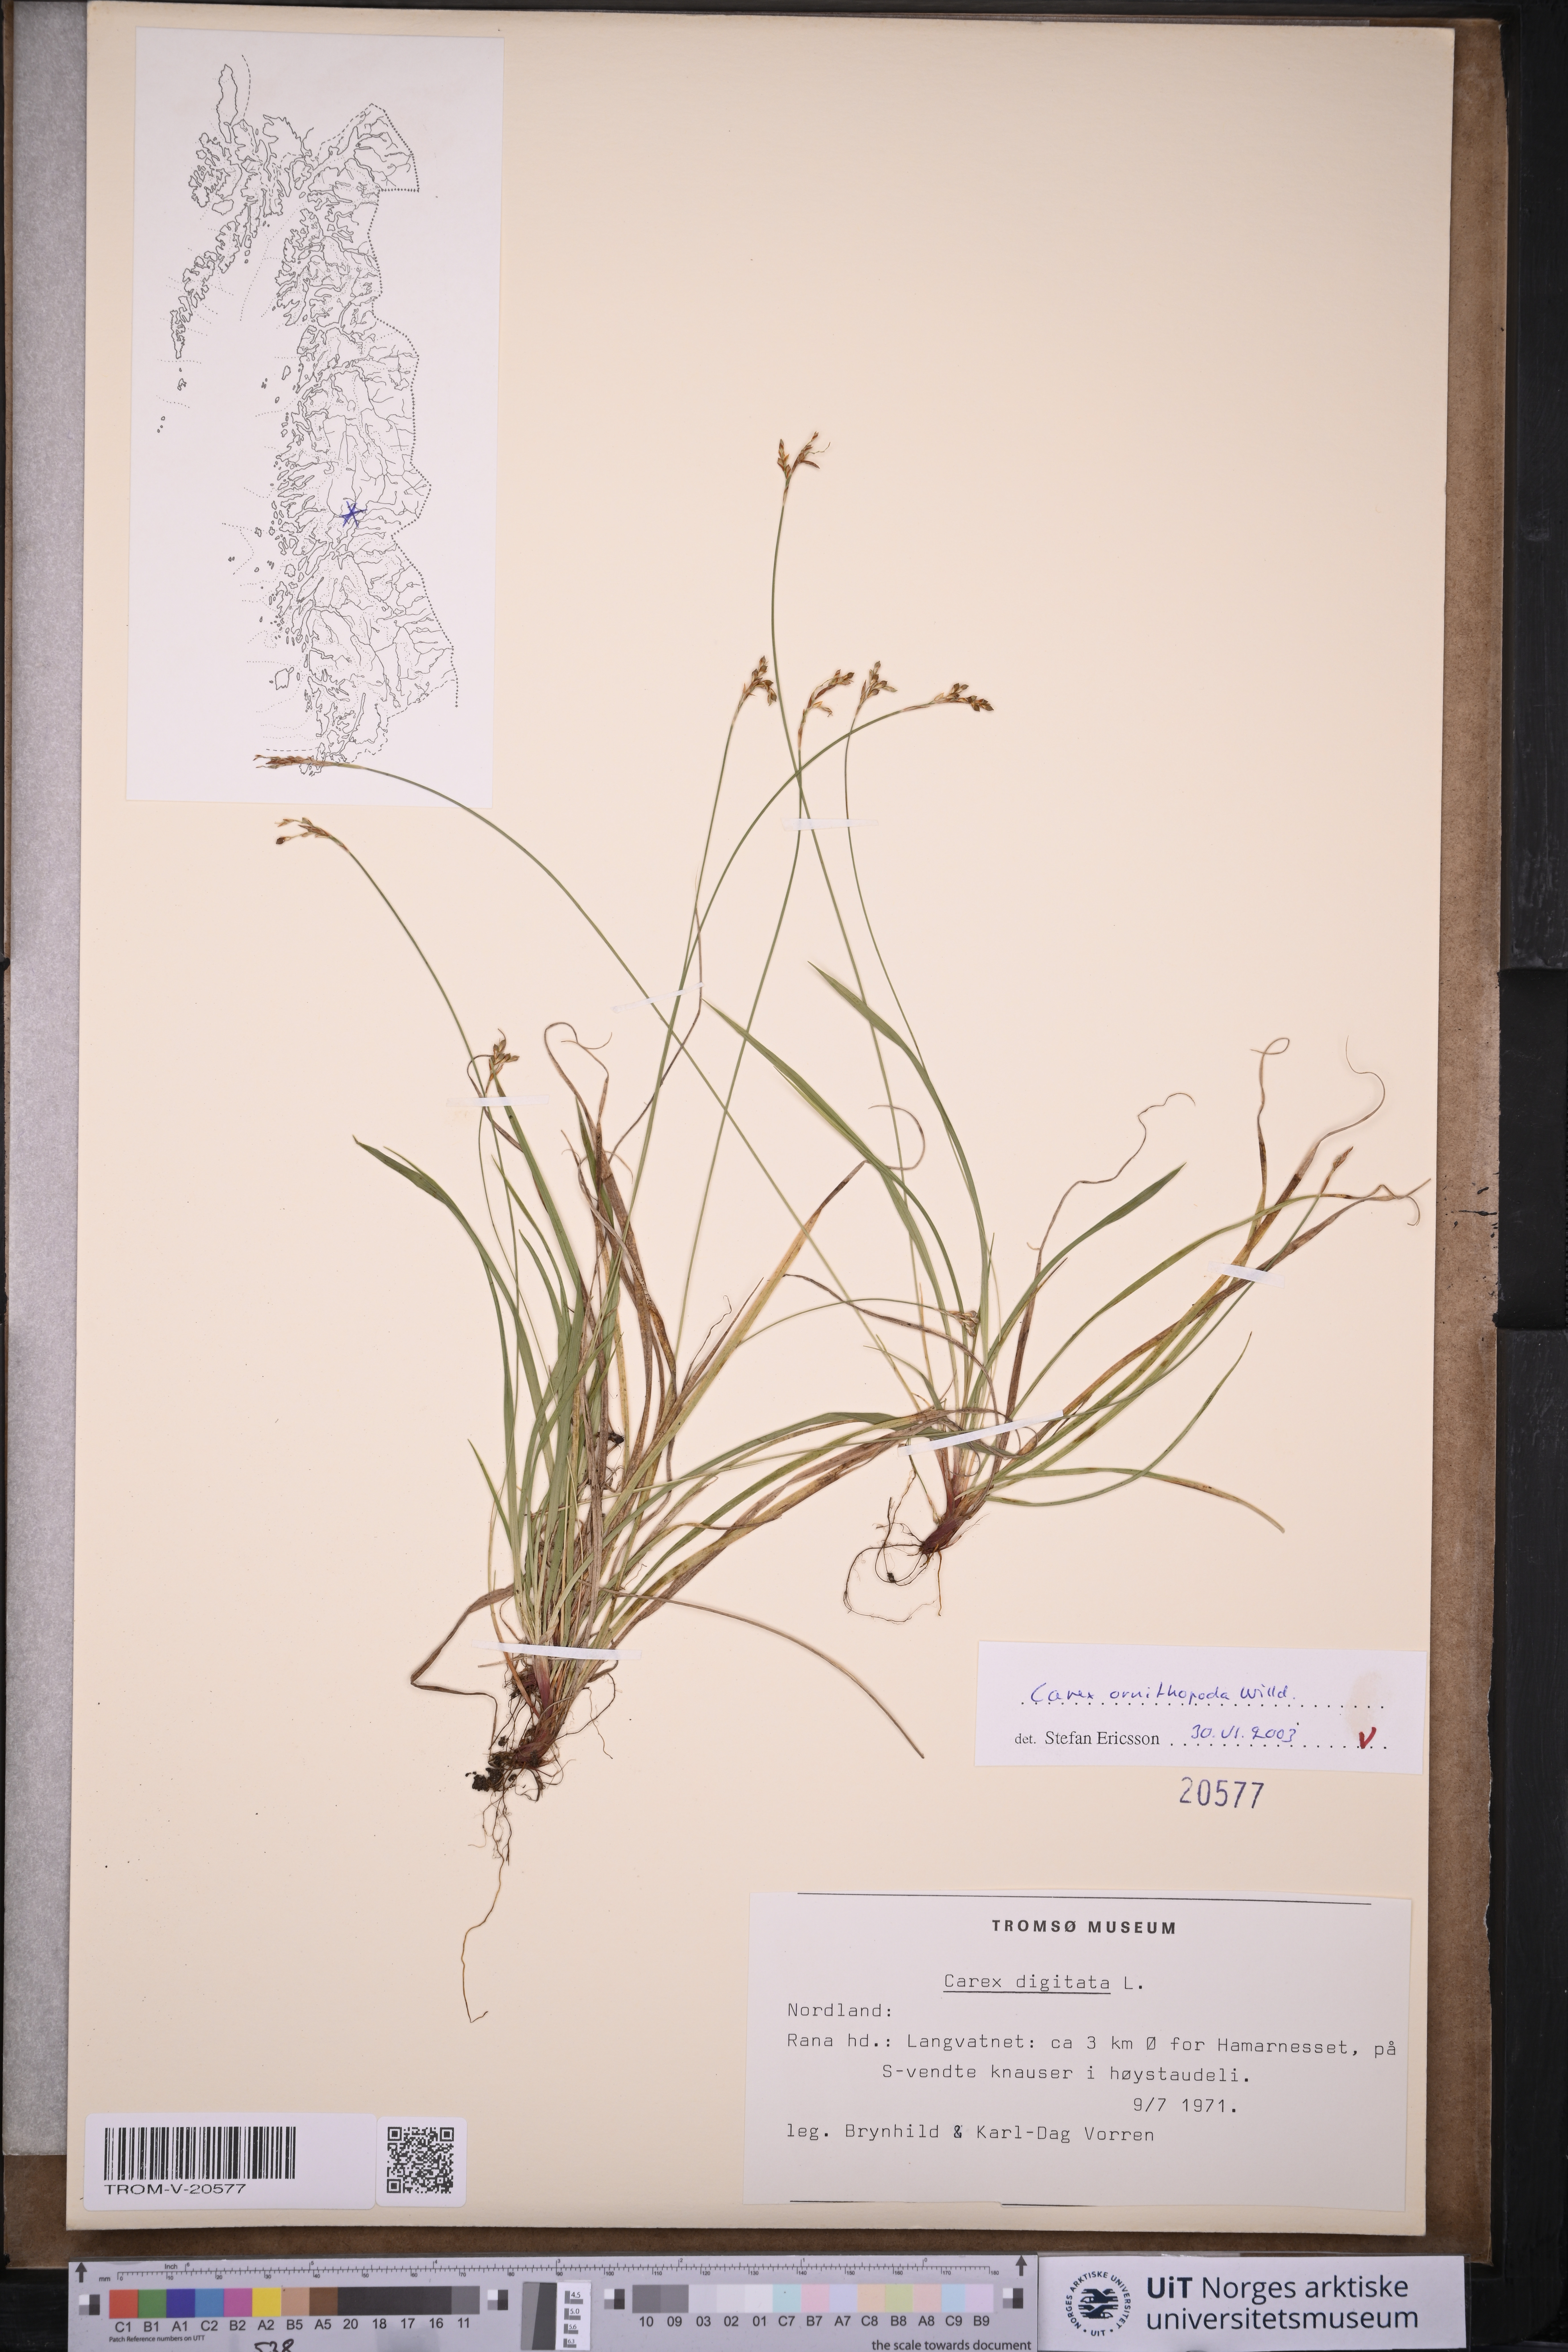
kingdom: Plantae
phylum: Tracheophyta
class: Liliopsida
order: Poales
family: Cyperaceae
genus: Carex
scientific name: Carex ornithopoda
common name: Bird's-foot sedge
